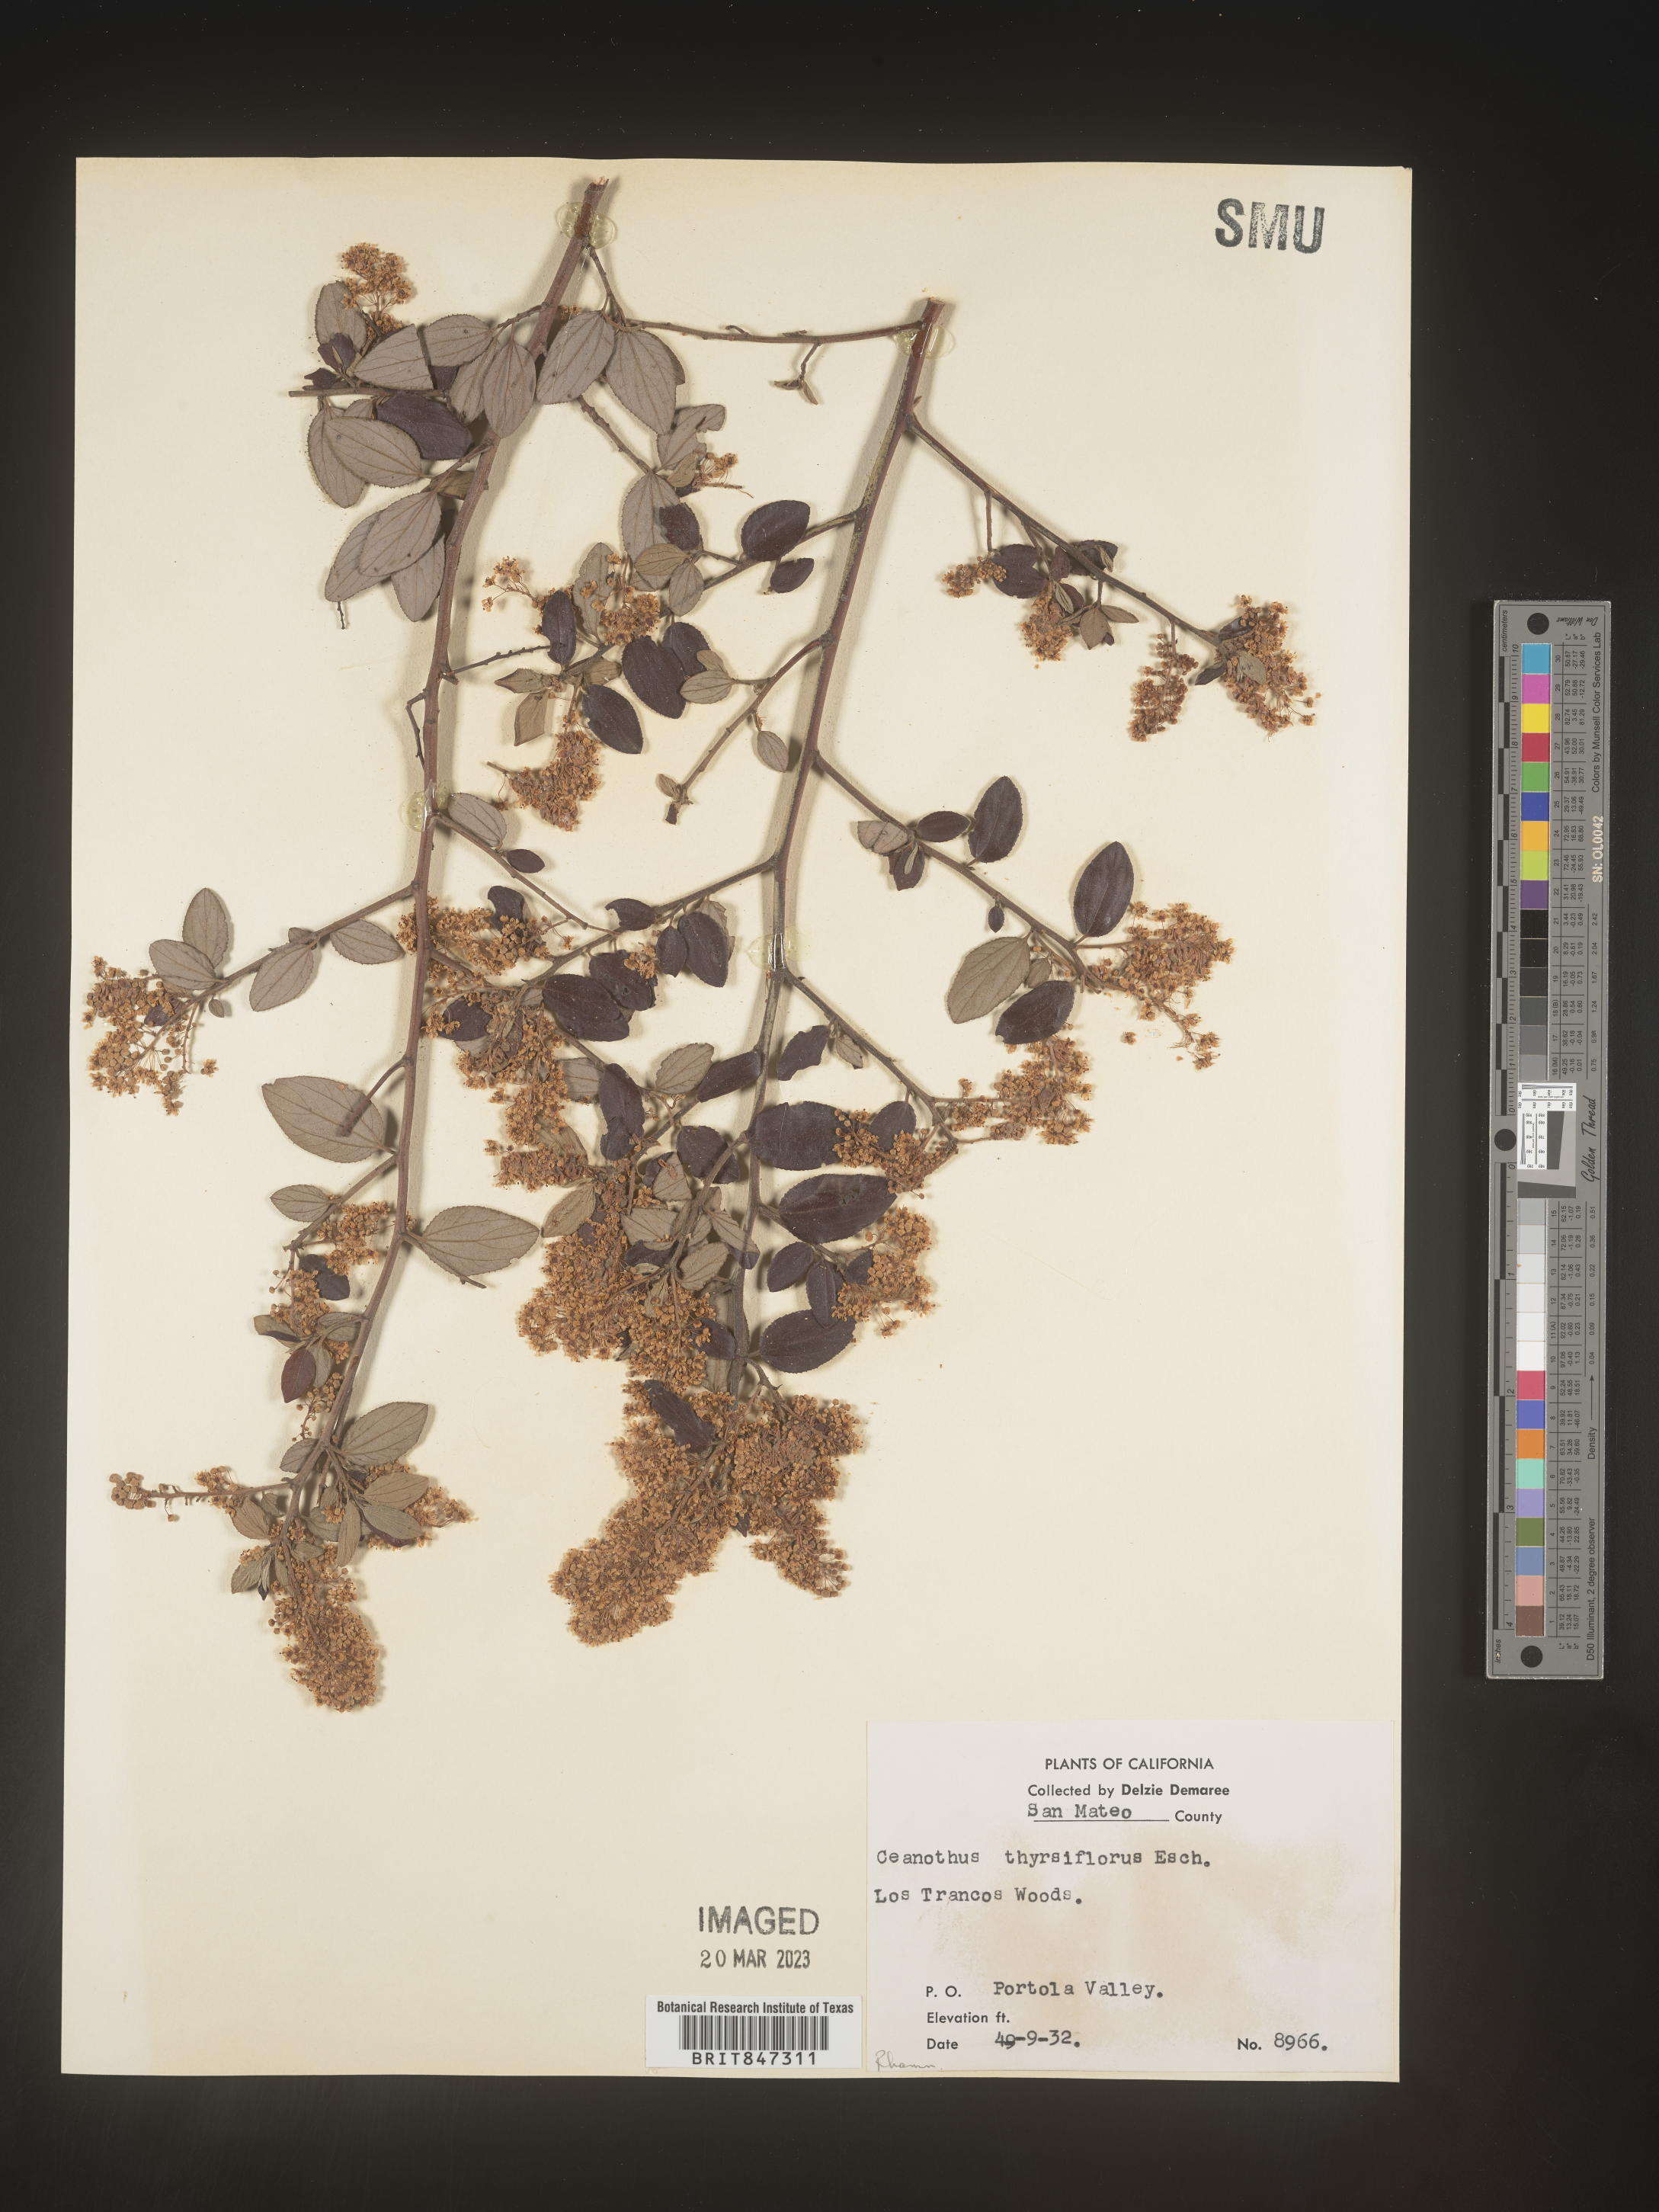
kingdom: Plantae
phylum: Tracheophyta
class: Magnoliopsida
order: Rosales
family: Rhamnaceae
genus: Ceanothus
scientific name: Ceanothus
